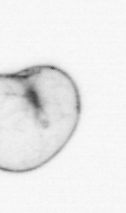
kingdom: Chromista
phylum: Myzozoa
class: Dinophyceae
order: Noctilucales
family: Noctilucaceae
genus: Noctiluca
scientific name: Noctiluca scintillans
